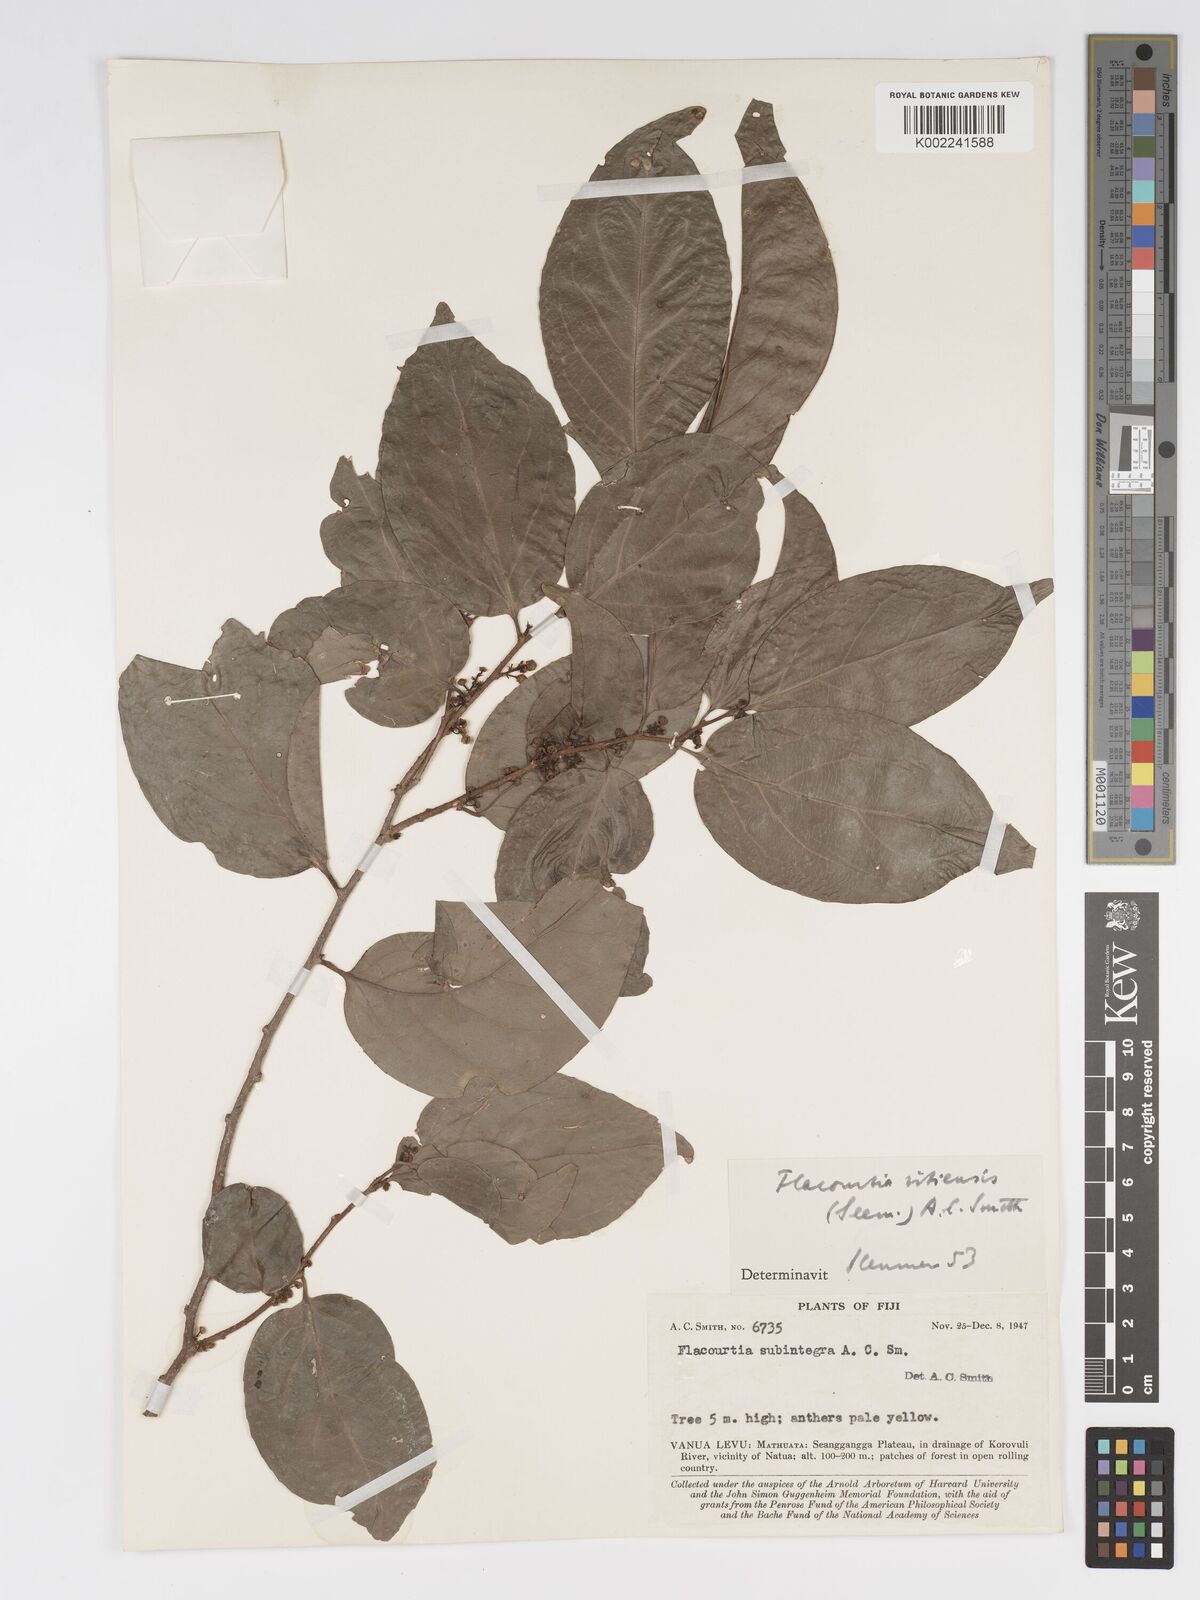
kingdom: Plantae
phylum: Tracheophyta
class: Magnoliopsida
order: Malpighiales
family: Salicaceae
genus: Flacourtia
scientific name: Flacourtia vitiensis
